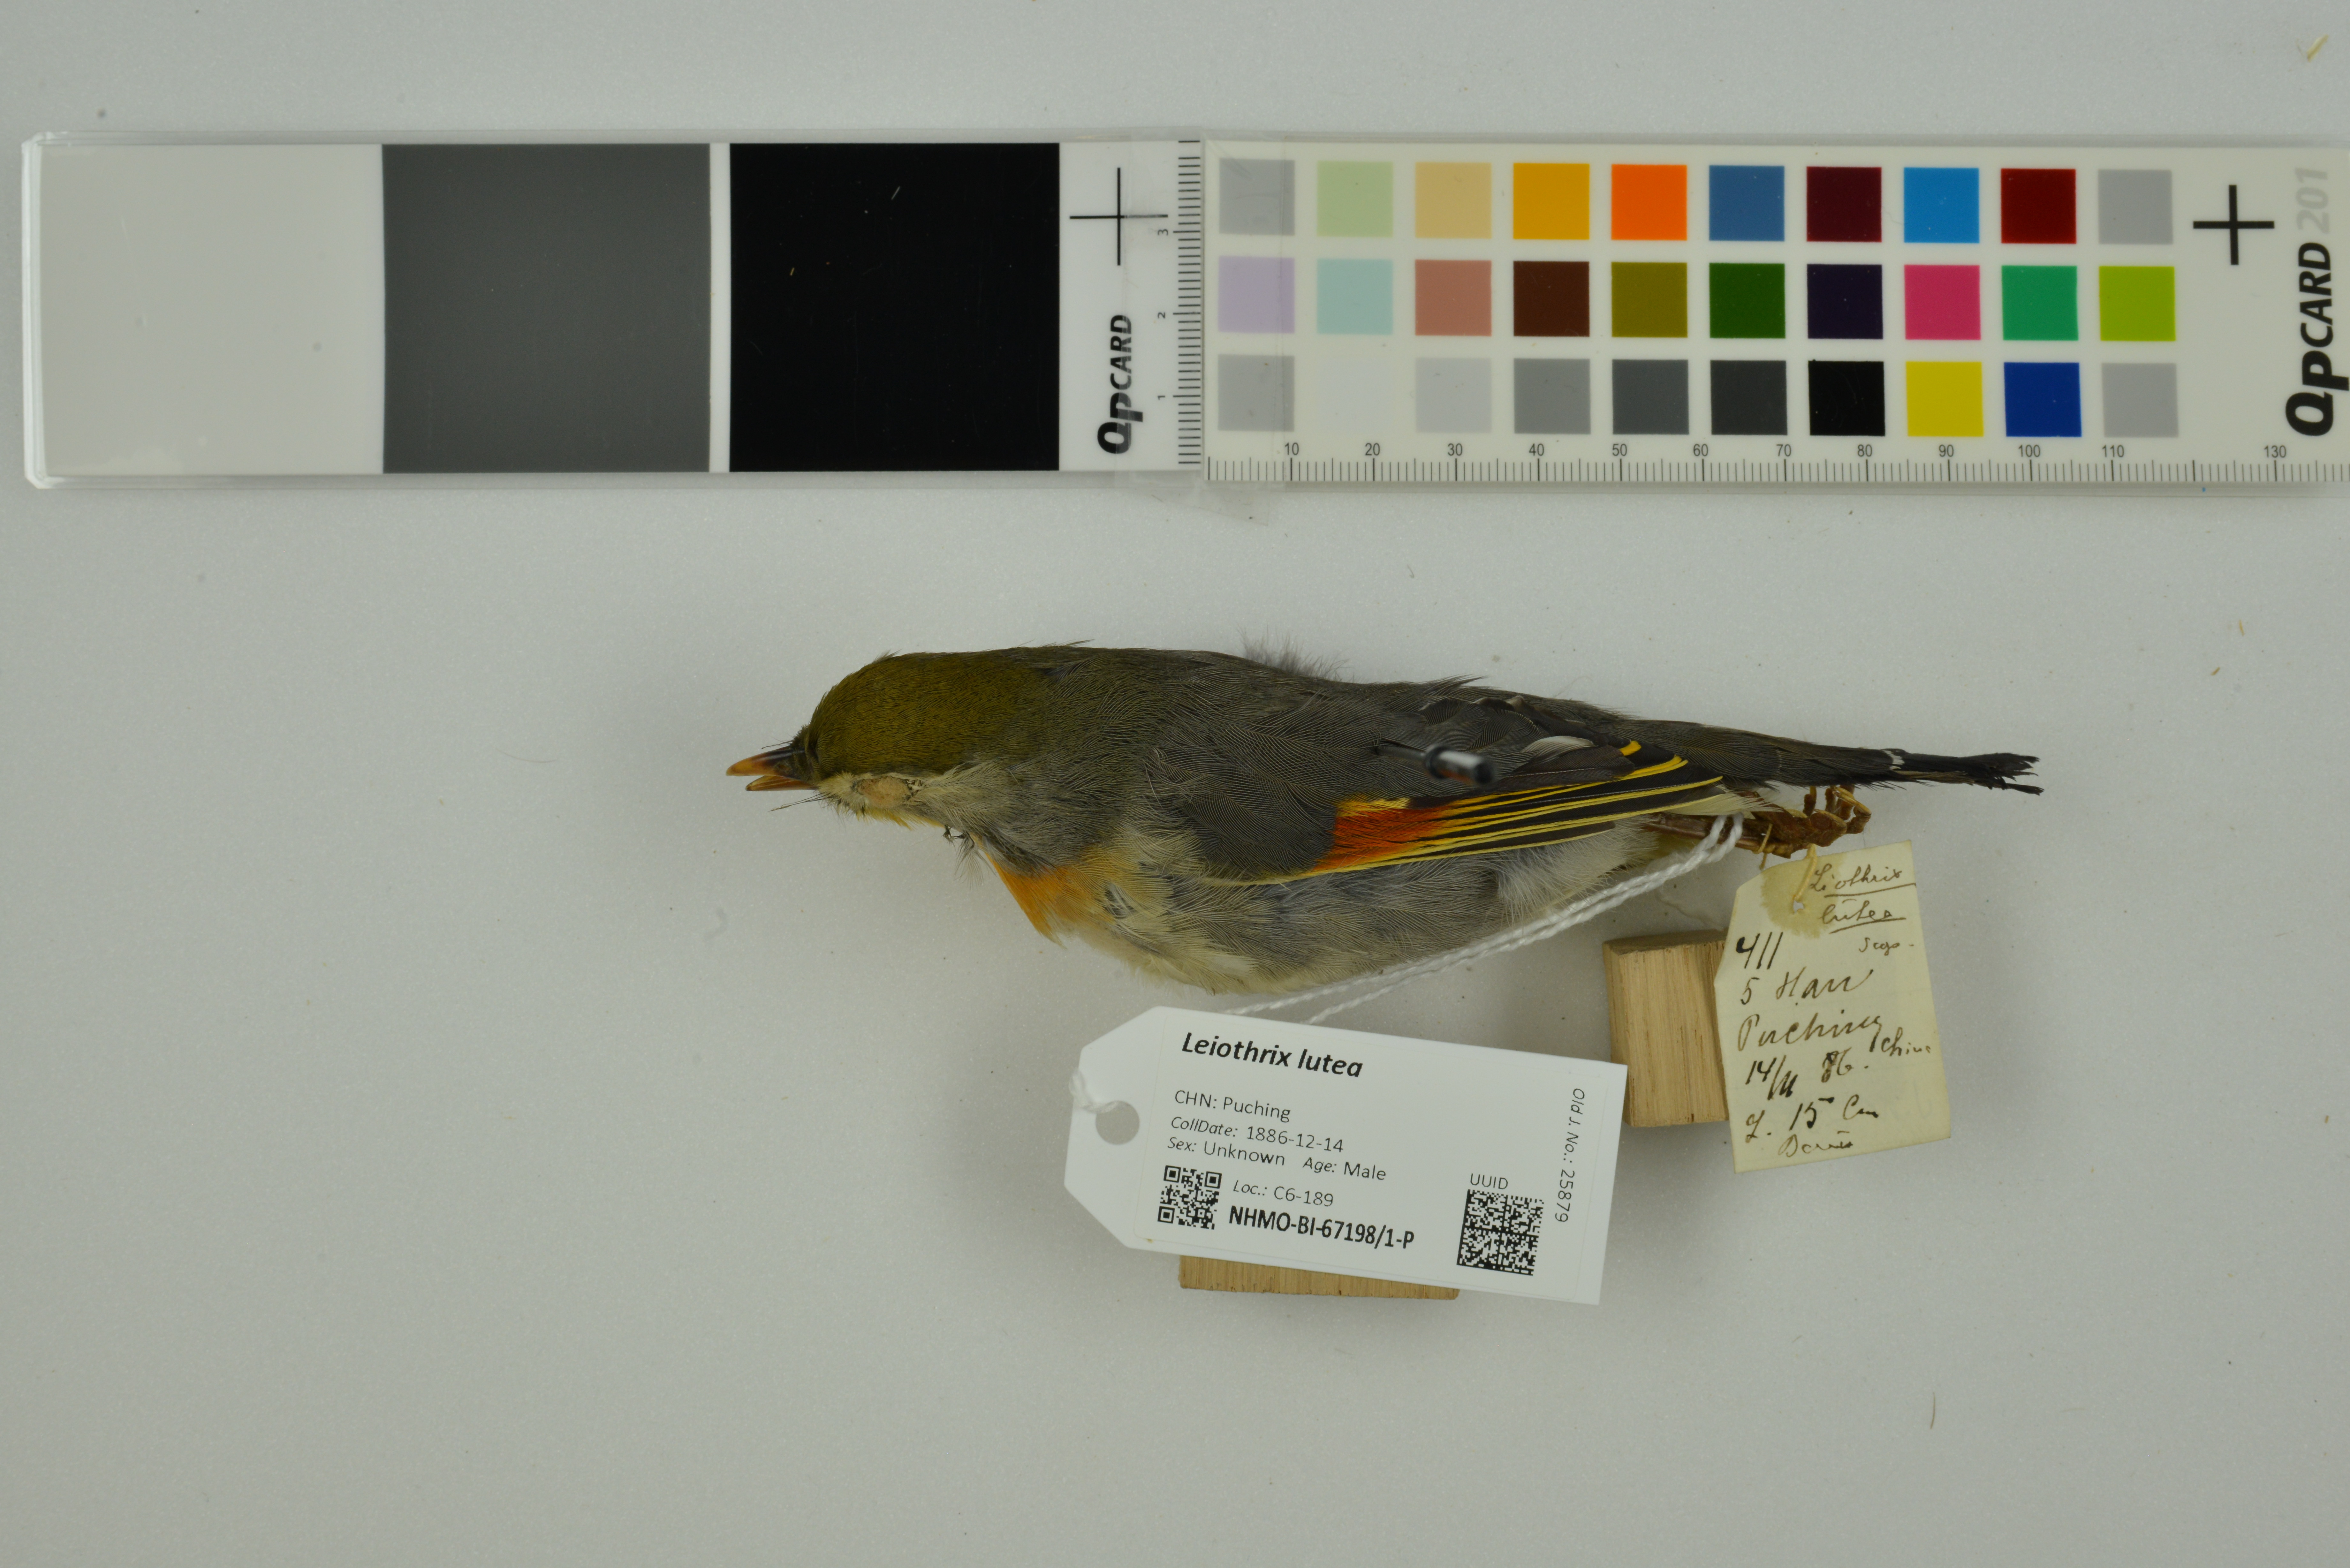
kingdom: Animalia
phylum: Chordata
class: Aves
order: Passeriformes
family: Leiothrichidae
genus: Leiothrix
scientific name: Leiothrix lutea
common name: Red-billed leiothrix
